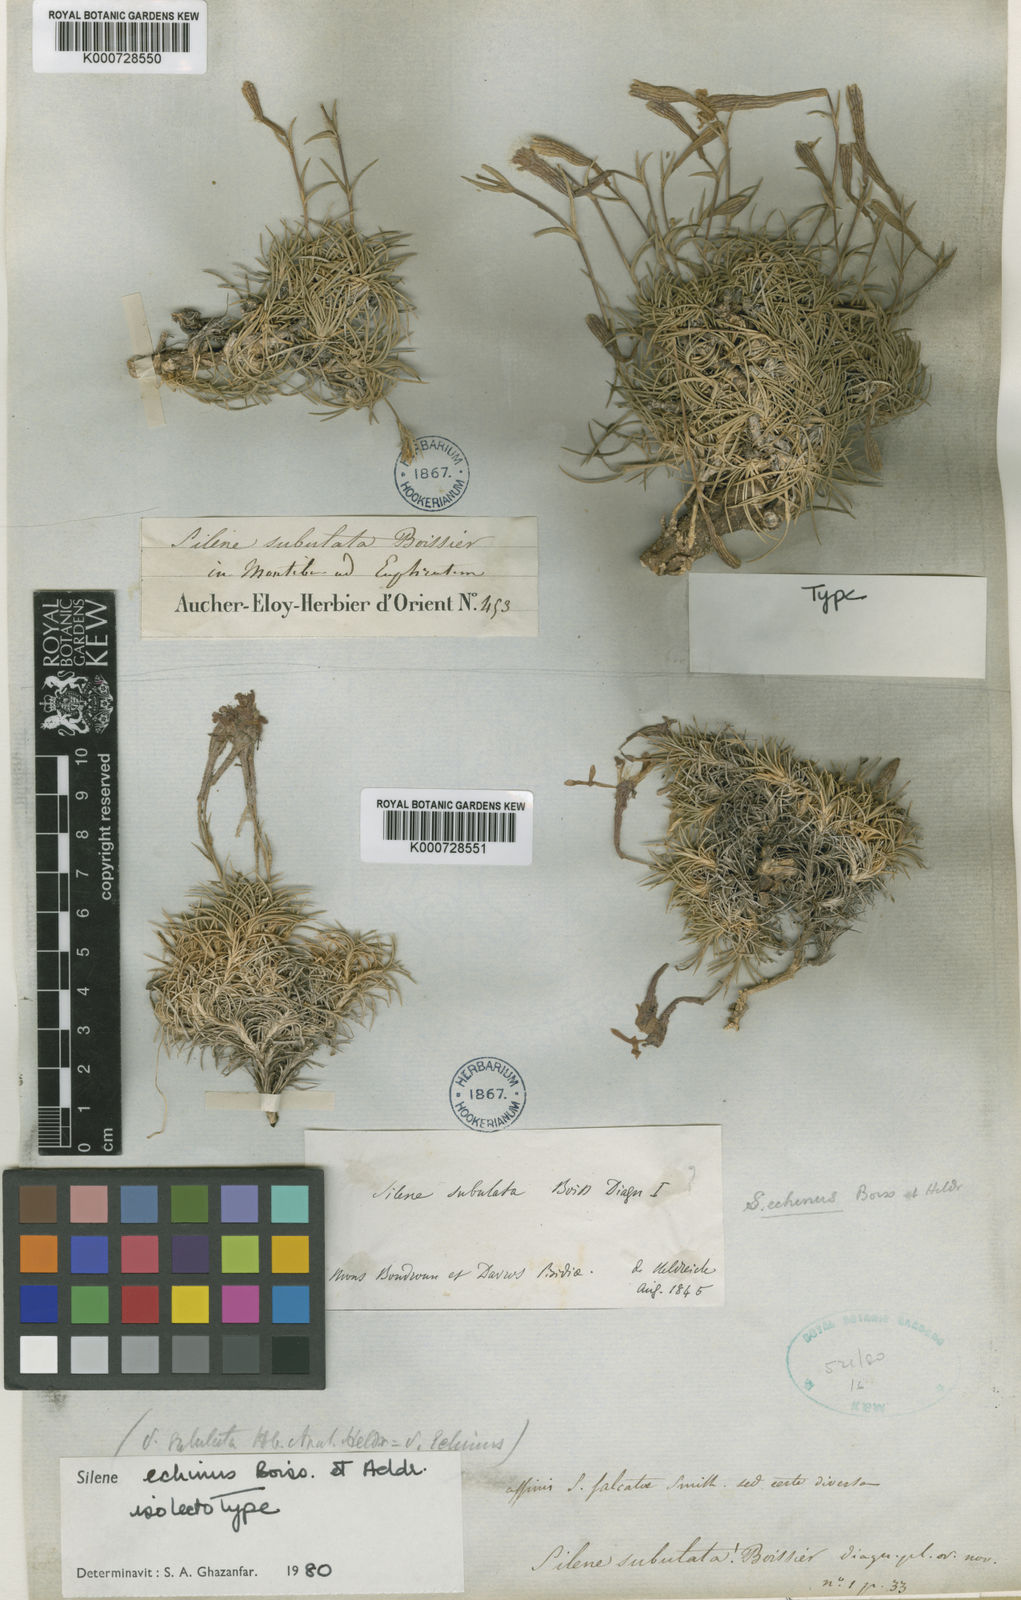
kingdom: Plantae
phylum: Tracheophyta
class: Magnoliopsida
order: Caryophyllales
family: Caryophyllaceae
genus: Silene
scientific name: Silene caryophylloides
